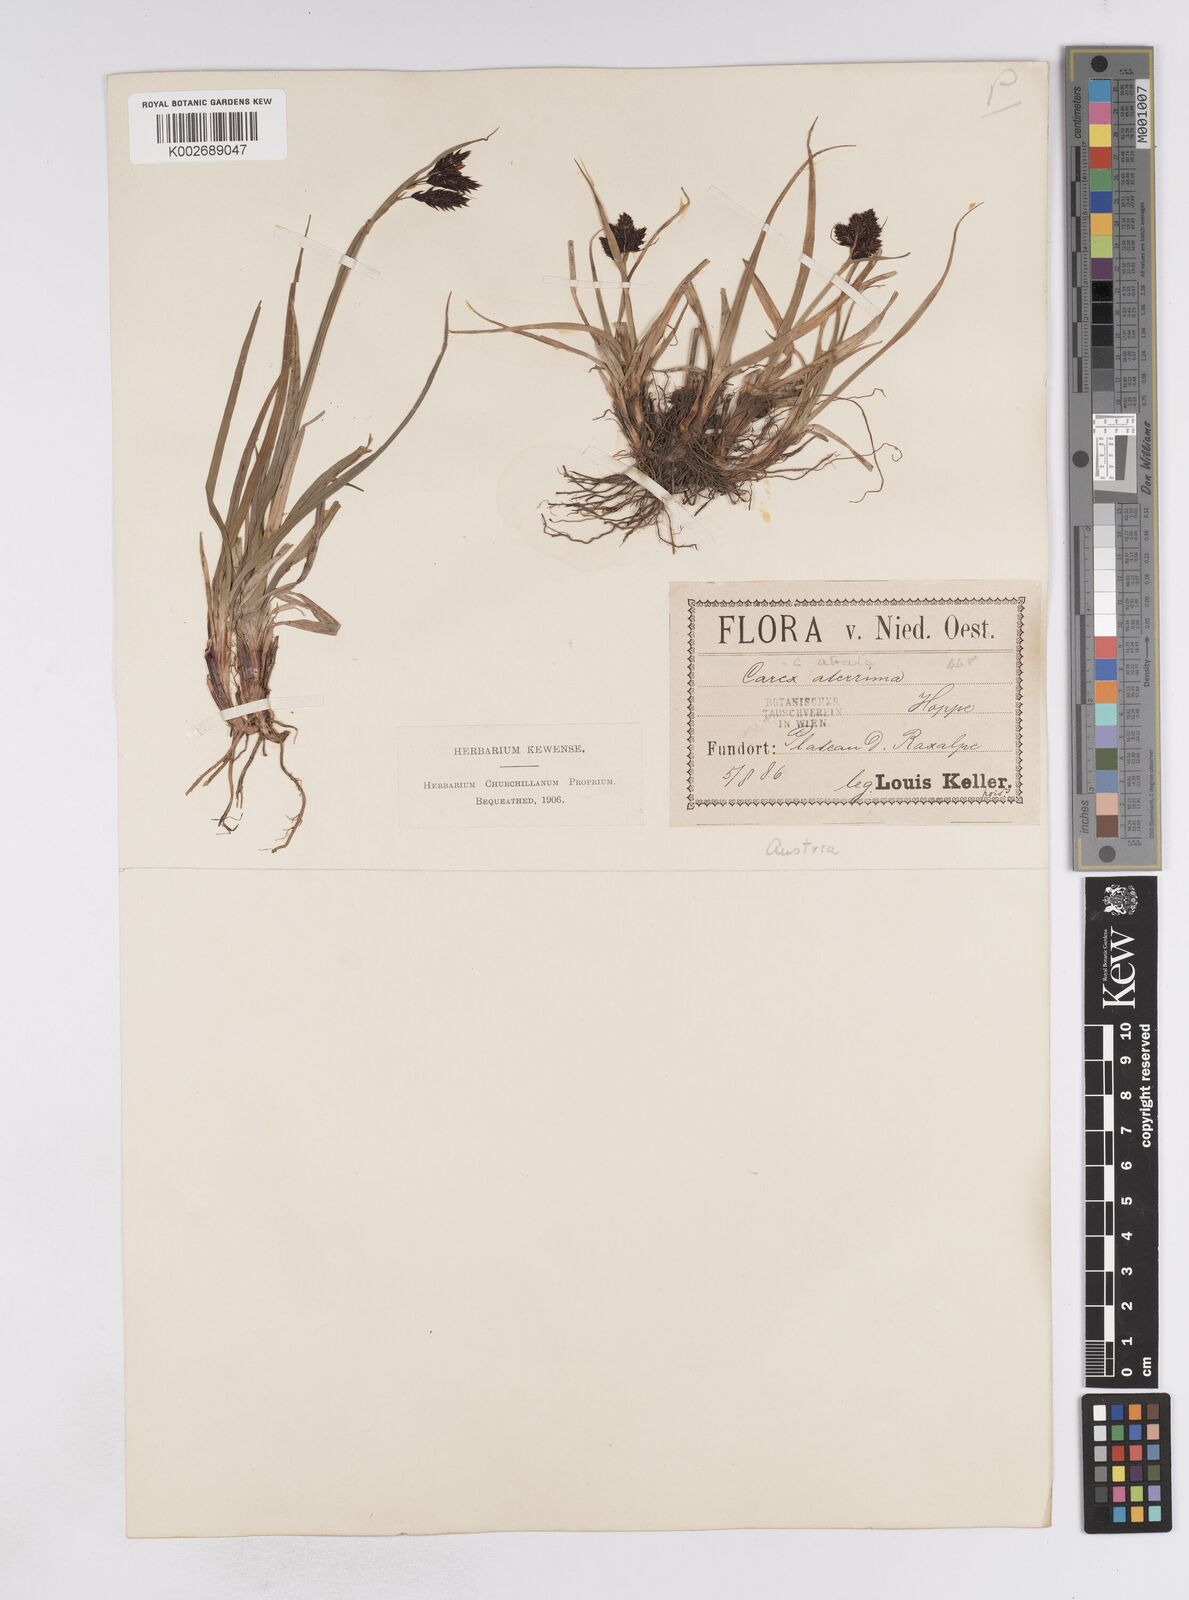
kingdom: Plantae
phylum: Tracheophyta
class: Liliopsida
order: Poales
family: Cyperaceae
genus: Carex
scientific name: Carex atrata
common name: Black alpine sedge
